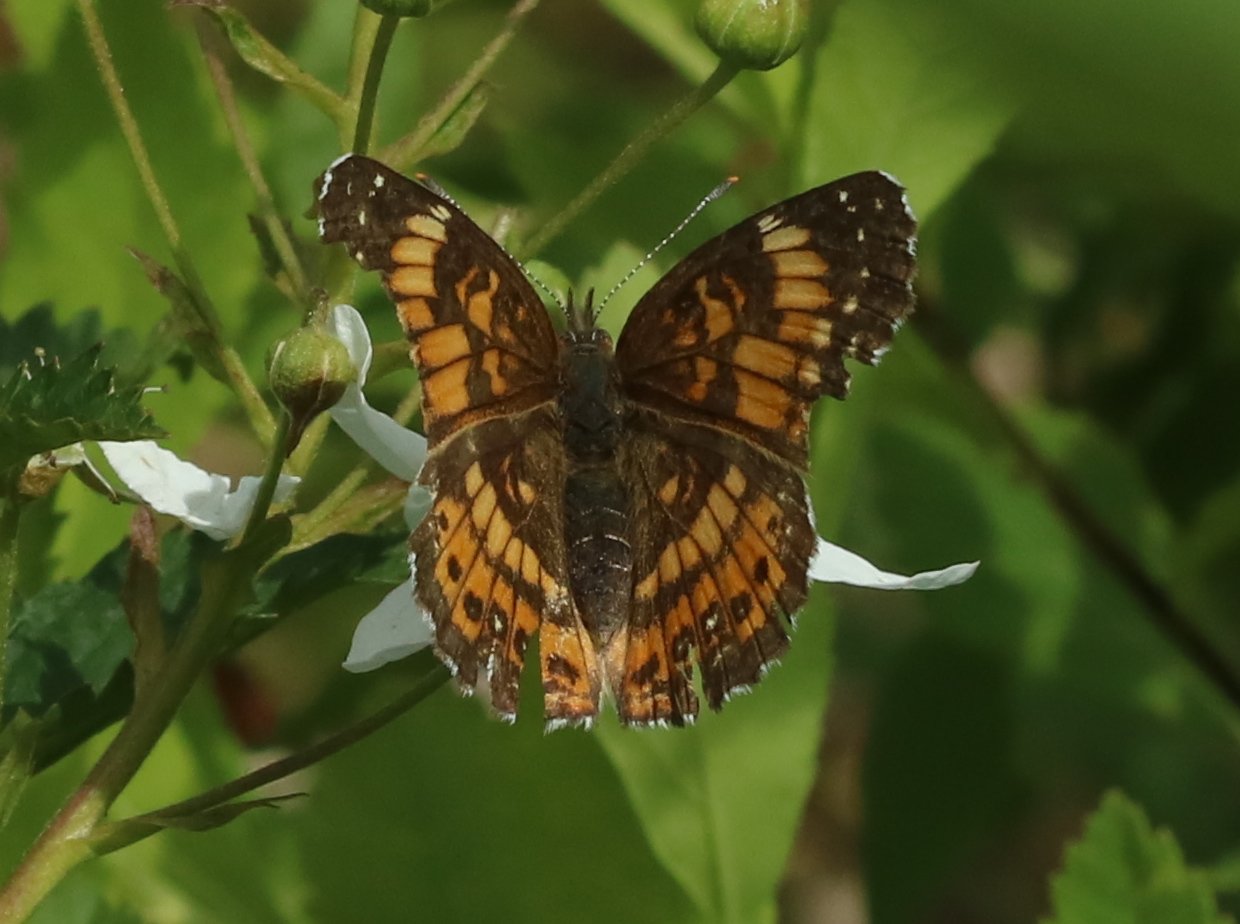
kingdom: Animalia
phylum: Arthropoda
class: Insecta
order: Lepidoptera
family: Nymphalidae
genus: Chlosyne
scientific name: Chlosyne nycteis
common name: Silvery Checkerspot
